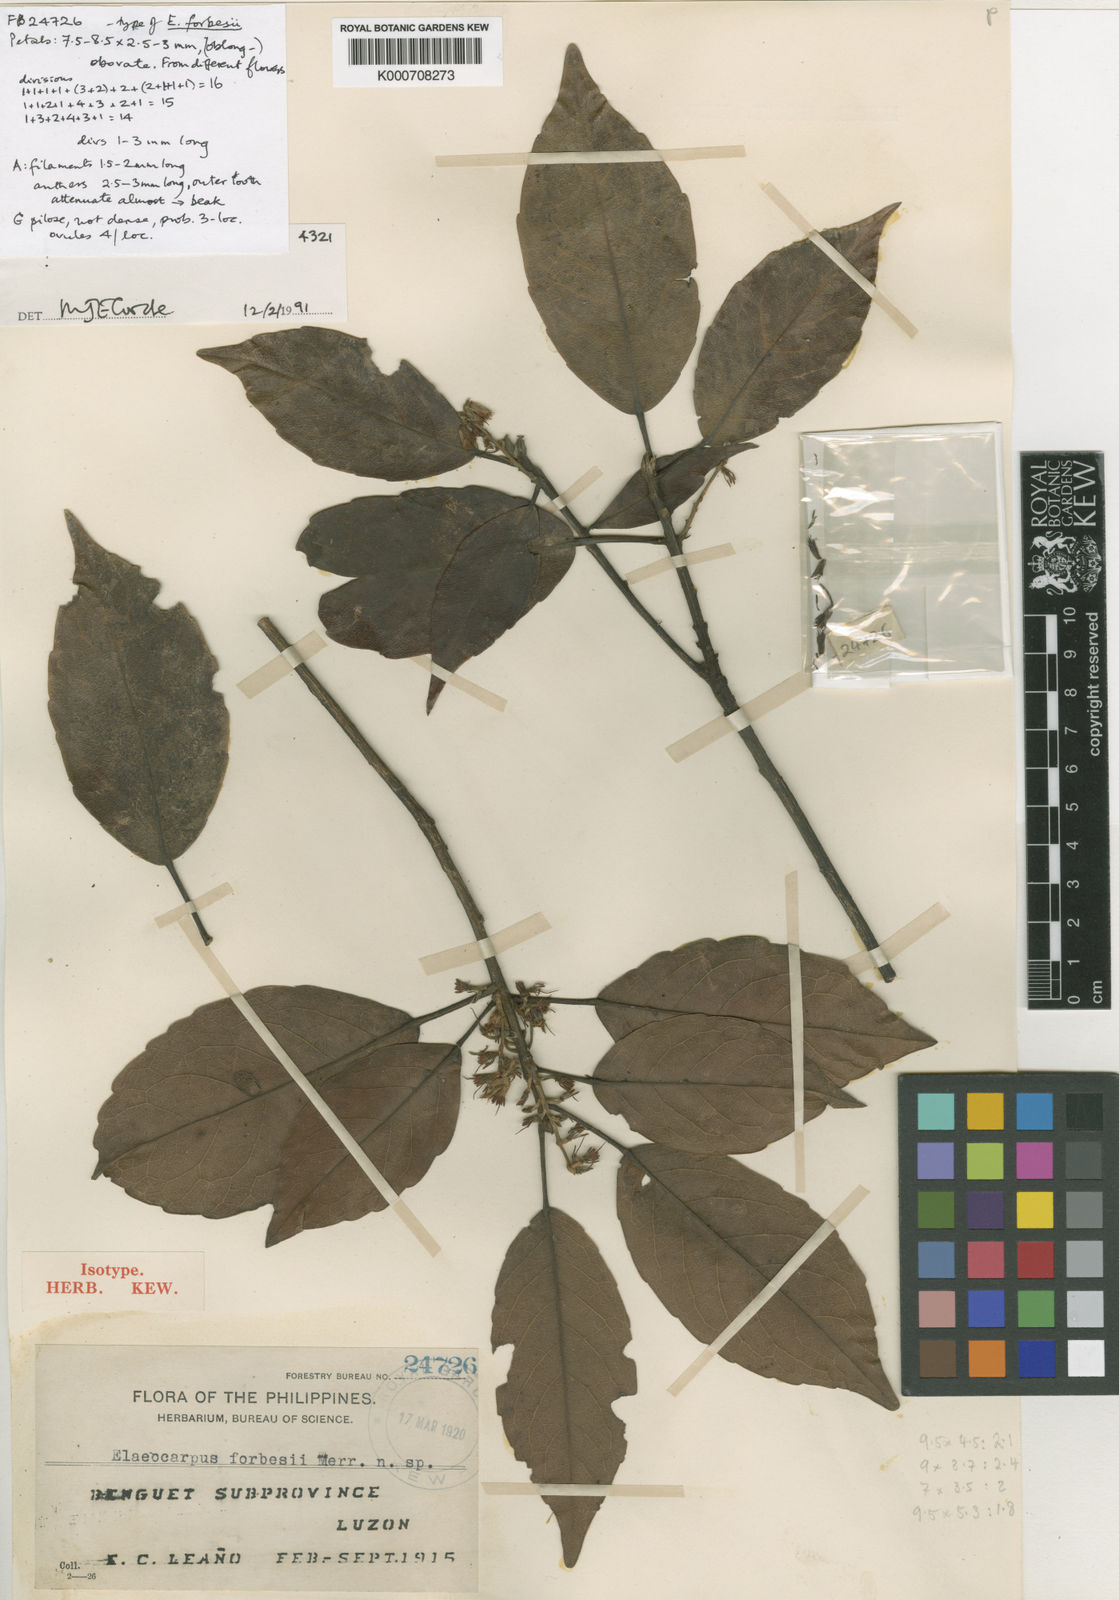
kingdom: Plantae
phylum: Tracheophyta
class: Magnoliopsida
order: Oxalidales
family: Elaeocarpaceae
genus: Elaeocarpus
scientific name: Elaeocarpus forbesii
